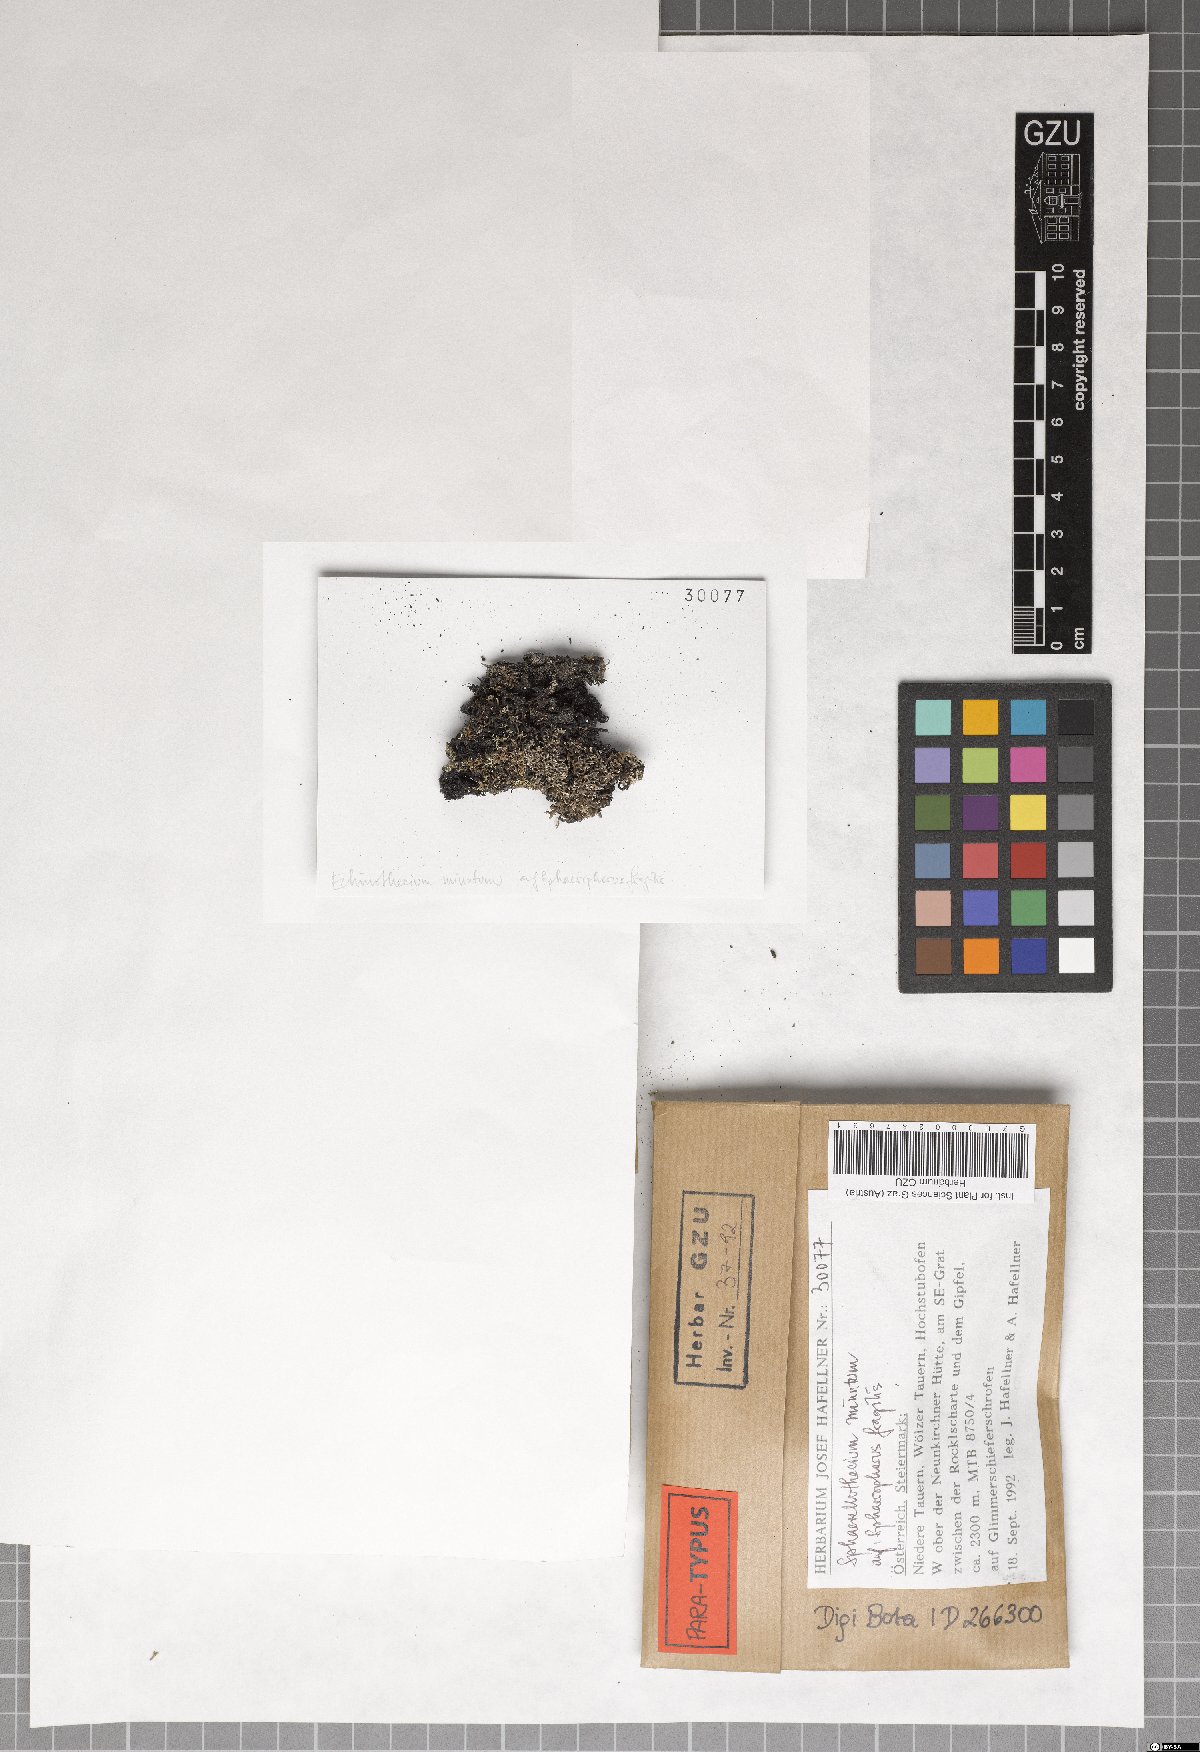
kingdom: Fungi
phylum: Ascomycota
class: Dothideomycetes
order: Mycosphaerellales
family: Mycosphaerellaceae
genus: Sphaerellothecium
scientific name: Sphaerellothecium minutum
